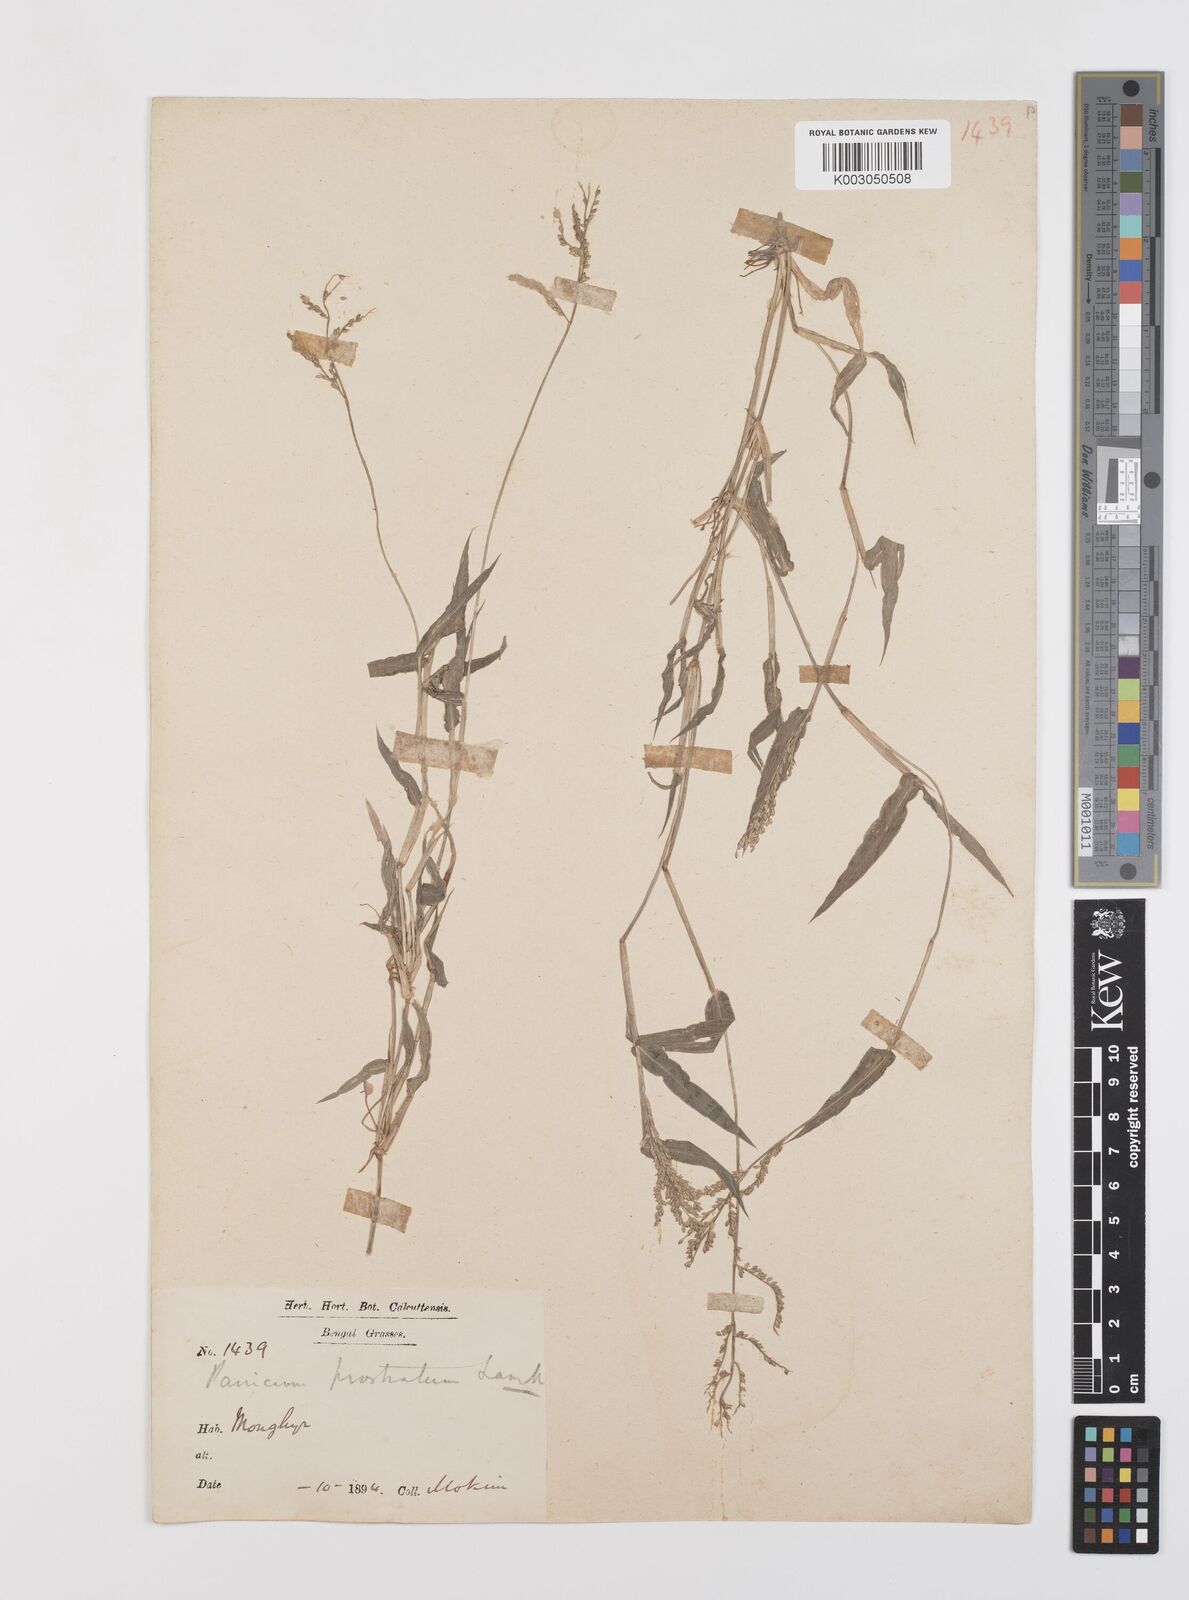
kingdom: Plantae
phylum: Tracheophyta
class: Liliopsida
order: Poales
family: Poaceae
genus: Urochloa
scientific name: Urochloa reptans
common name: Sprawling signalgrass
